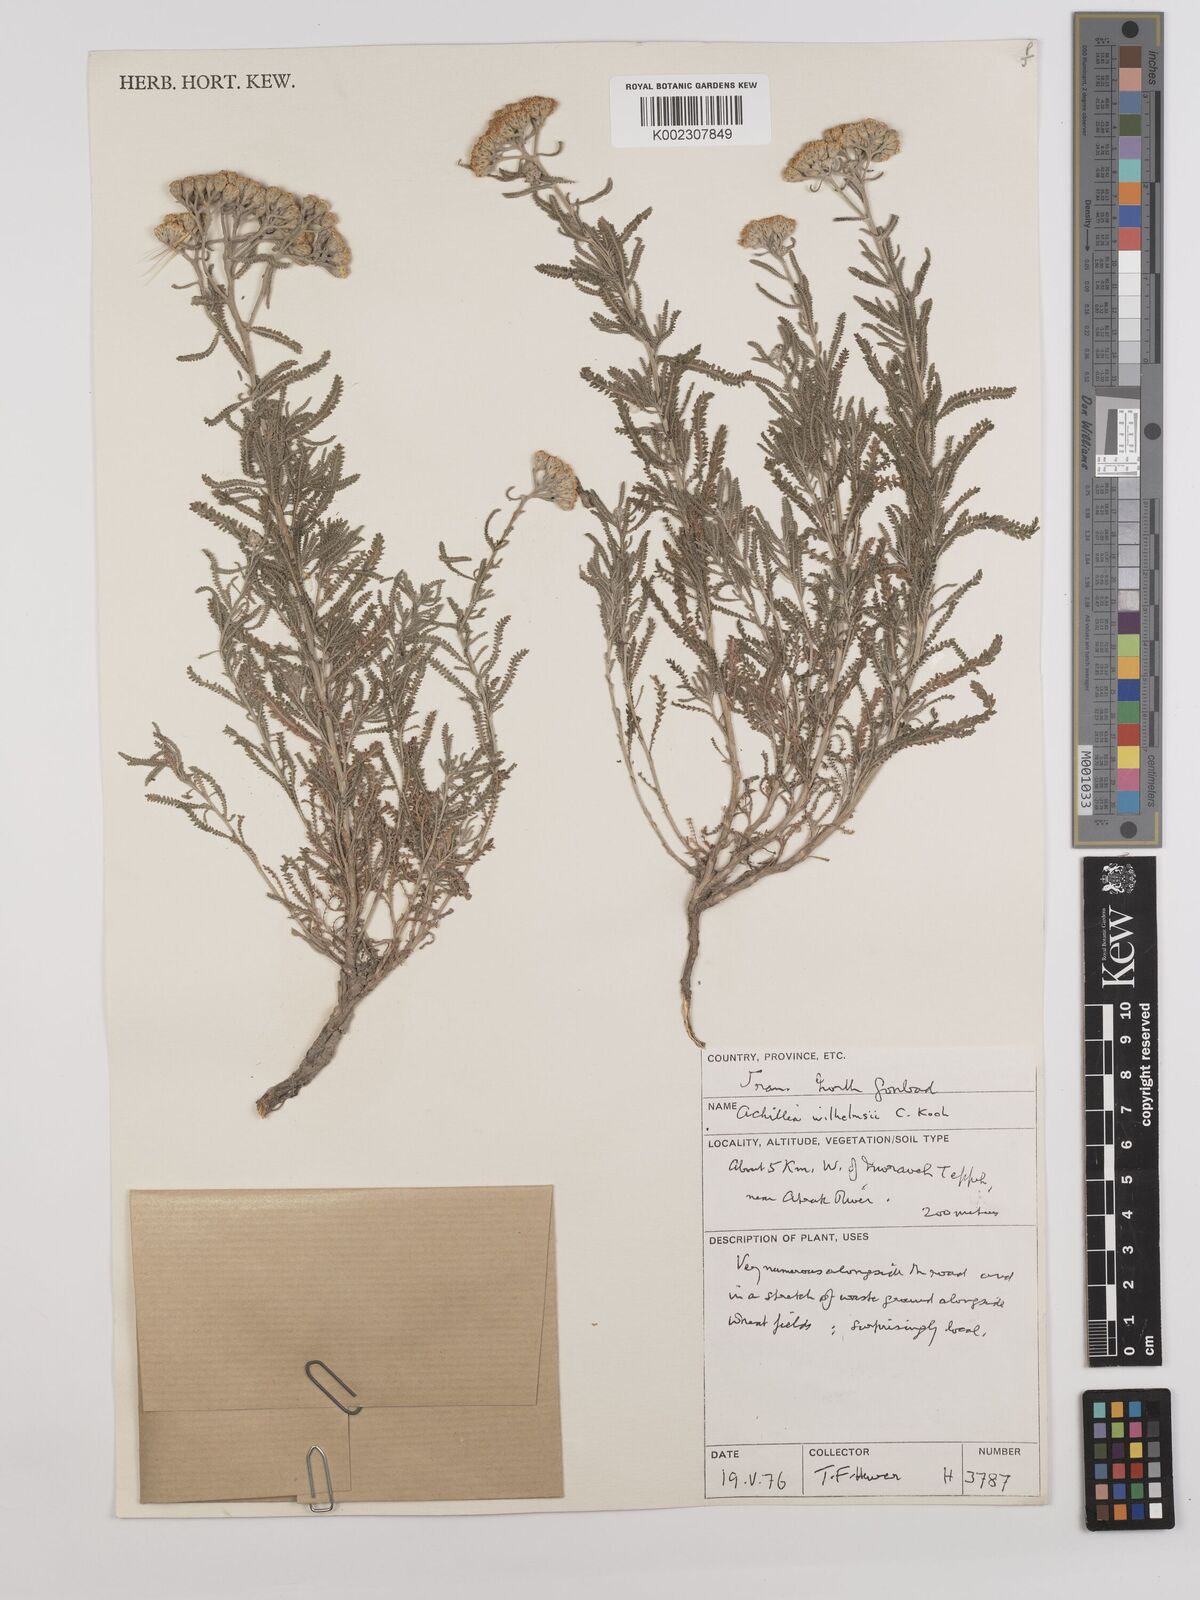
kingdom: Plantae
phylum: Tracheophyta
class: Magnoliopsida
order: Asterales
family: Asteraceae
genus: Achillea
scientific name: Achillea wilhelmsii
